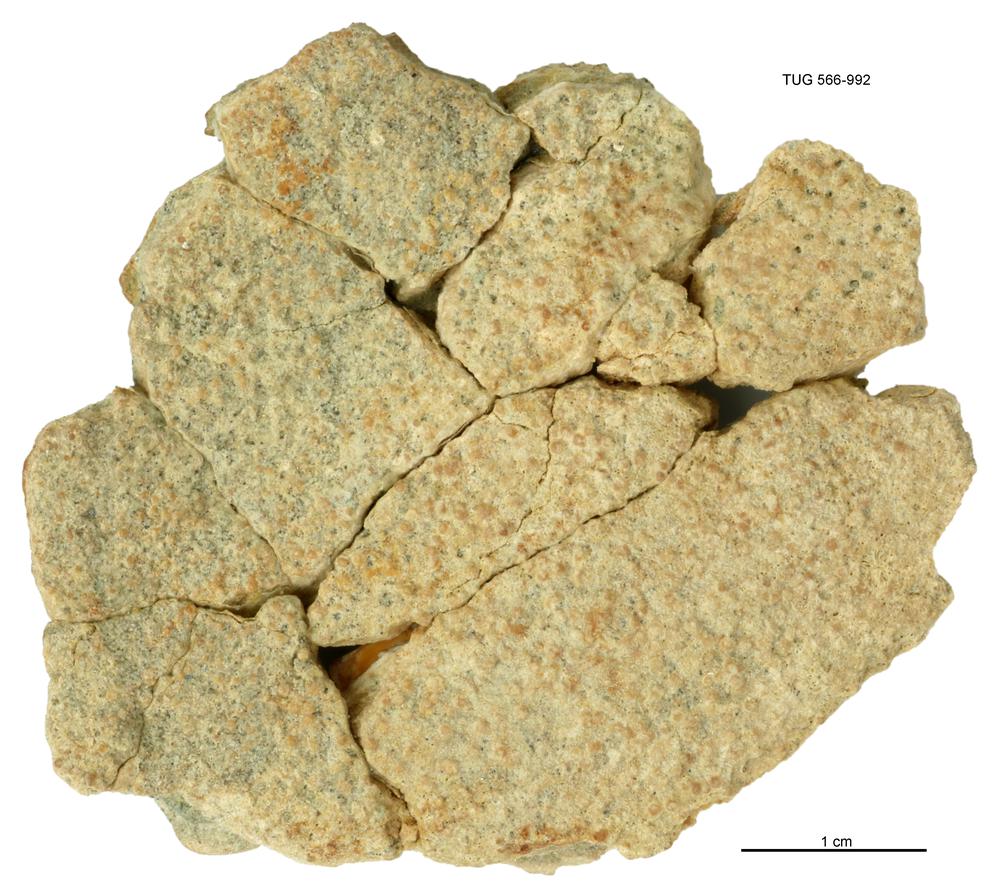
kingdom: Animalia
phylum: Chordata
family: Holoptychiidae
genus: Glyptolepis
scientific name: Glyptolepis
